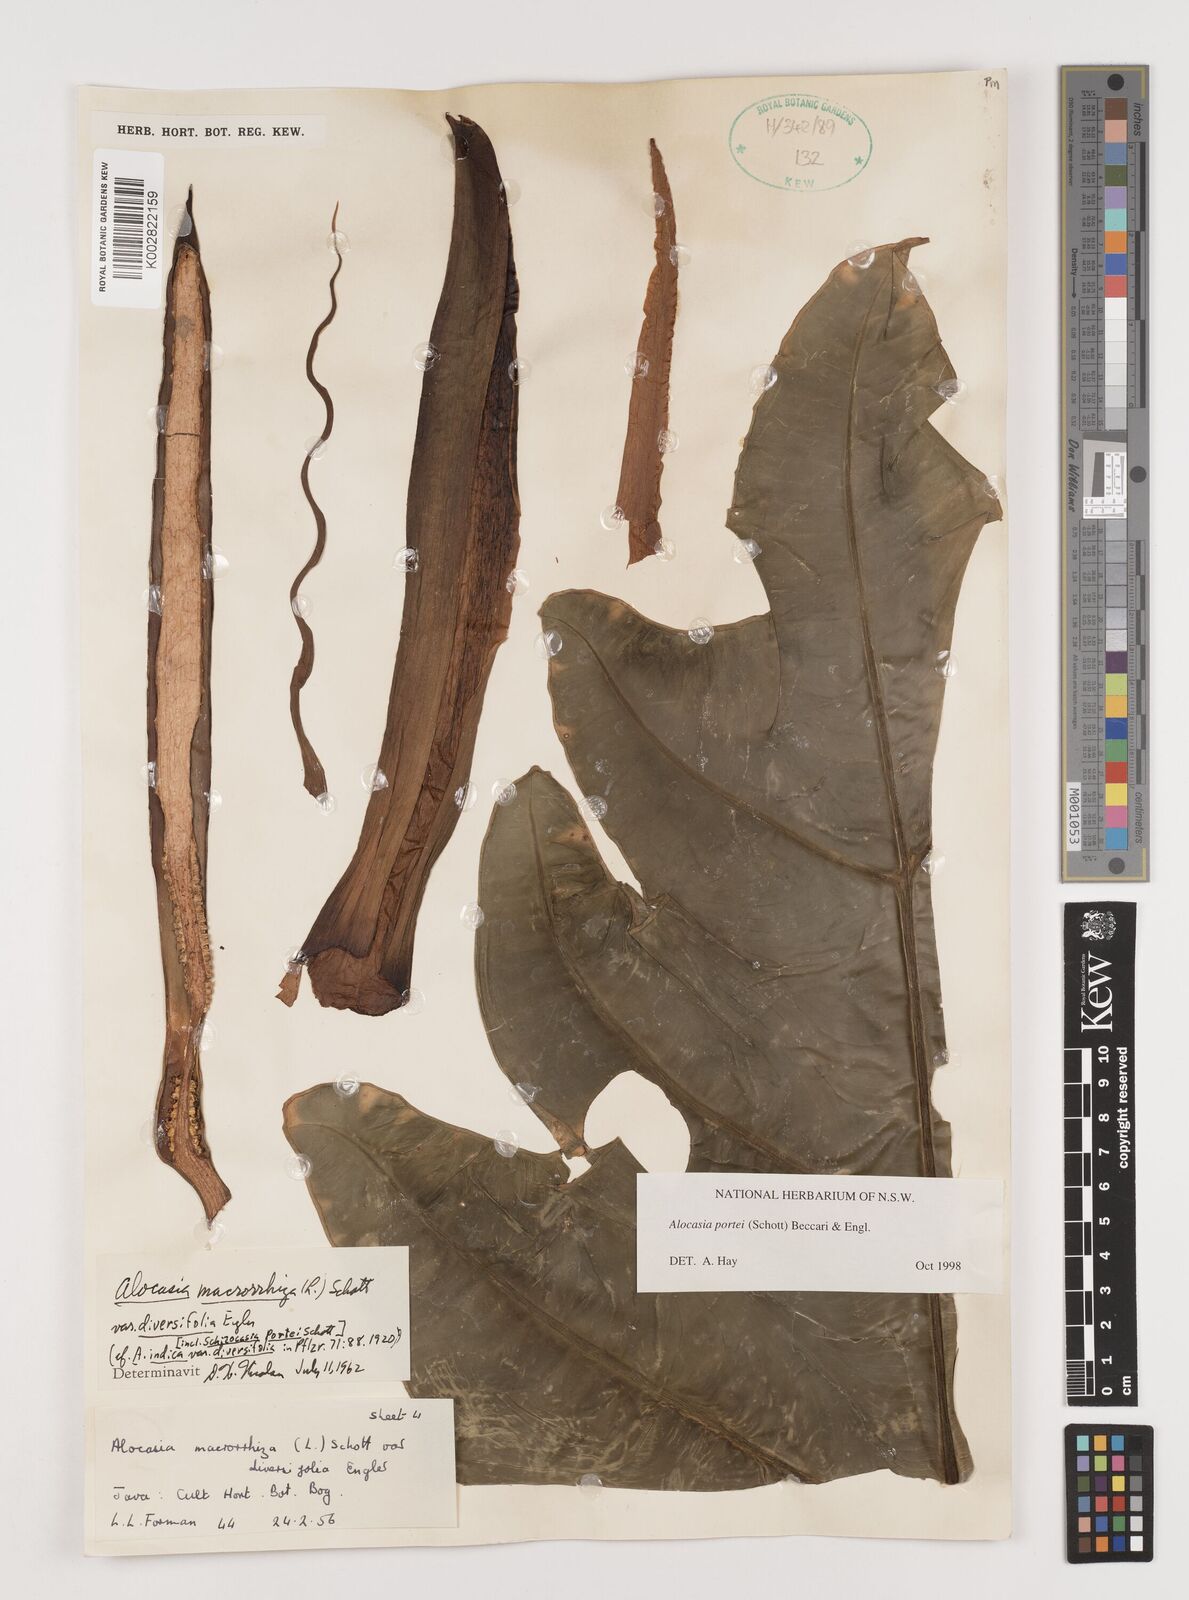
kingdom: Plantae
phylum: Tracheophyta
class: Liliopsida
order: Alismatales
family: Araceae
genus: Alocasia
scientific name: Alocasia portei
